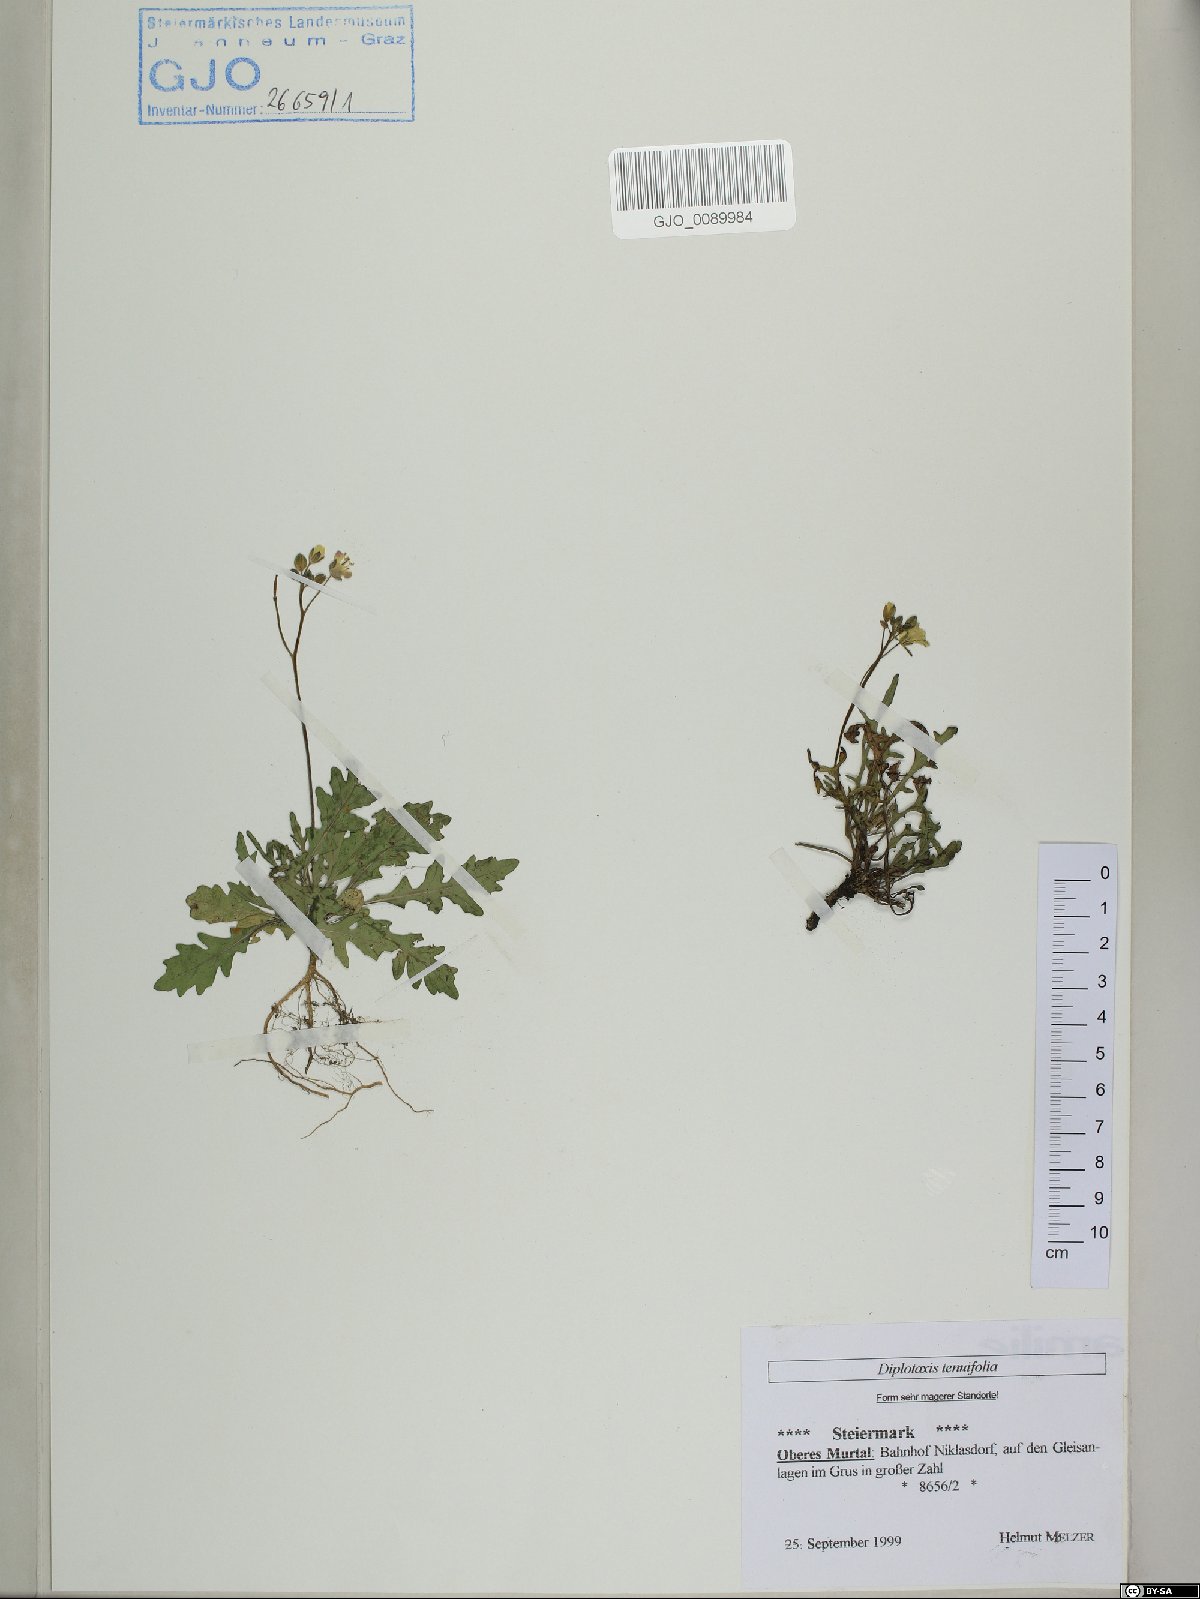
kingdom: Plantae
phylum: Tracheophyta
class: Magnoliopsida
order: Brassicales
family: Brassicaceae
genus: Diplotaxis
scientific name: Diplotaxis tenuifolia
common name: Perennial wall-rocket
